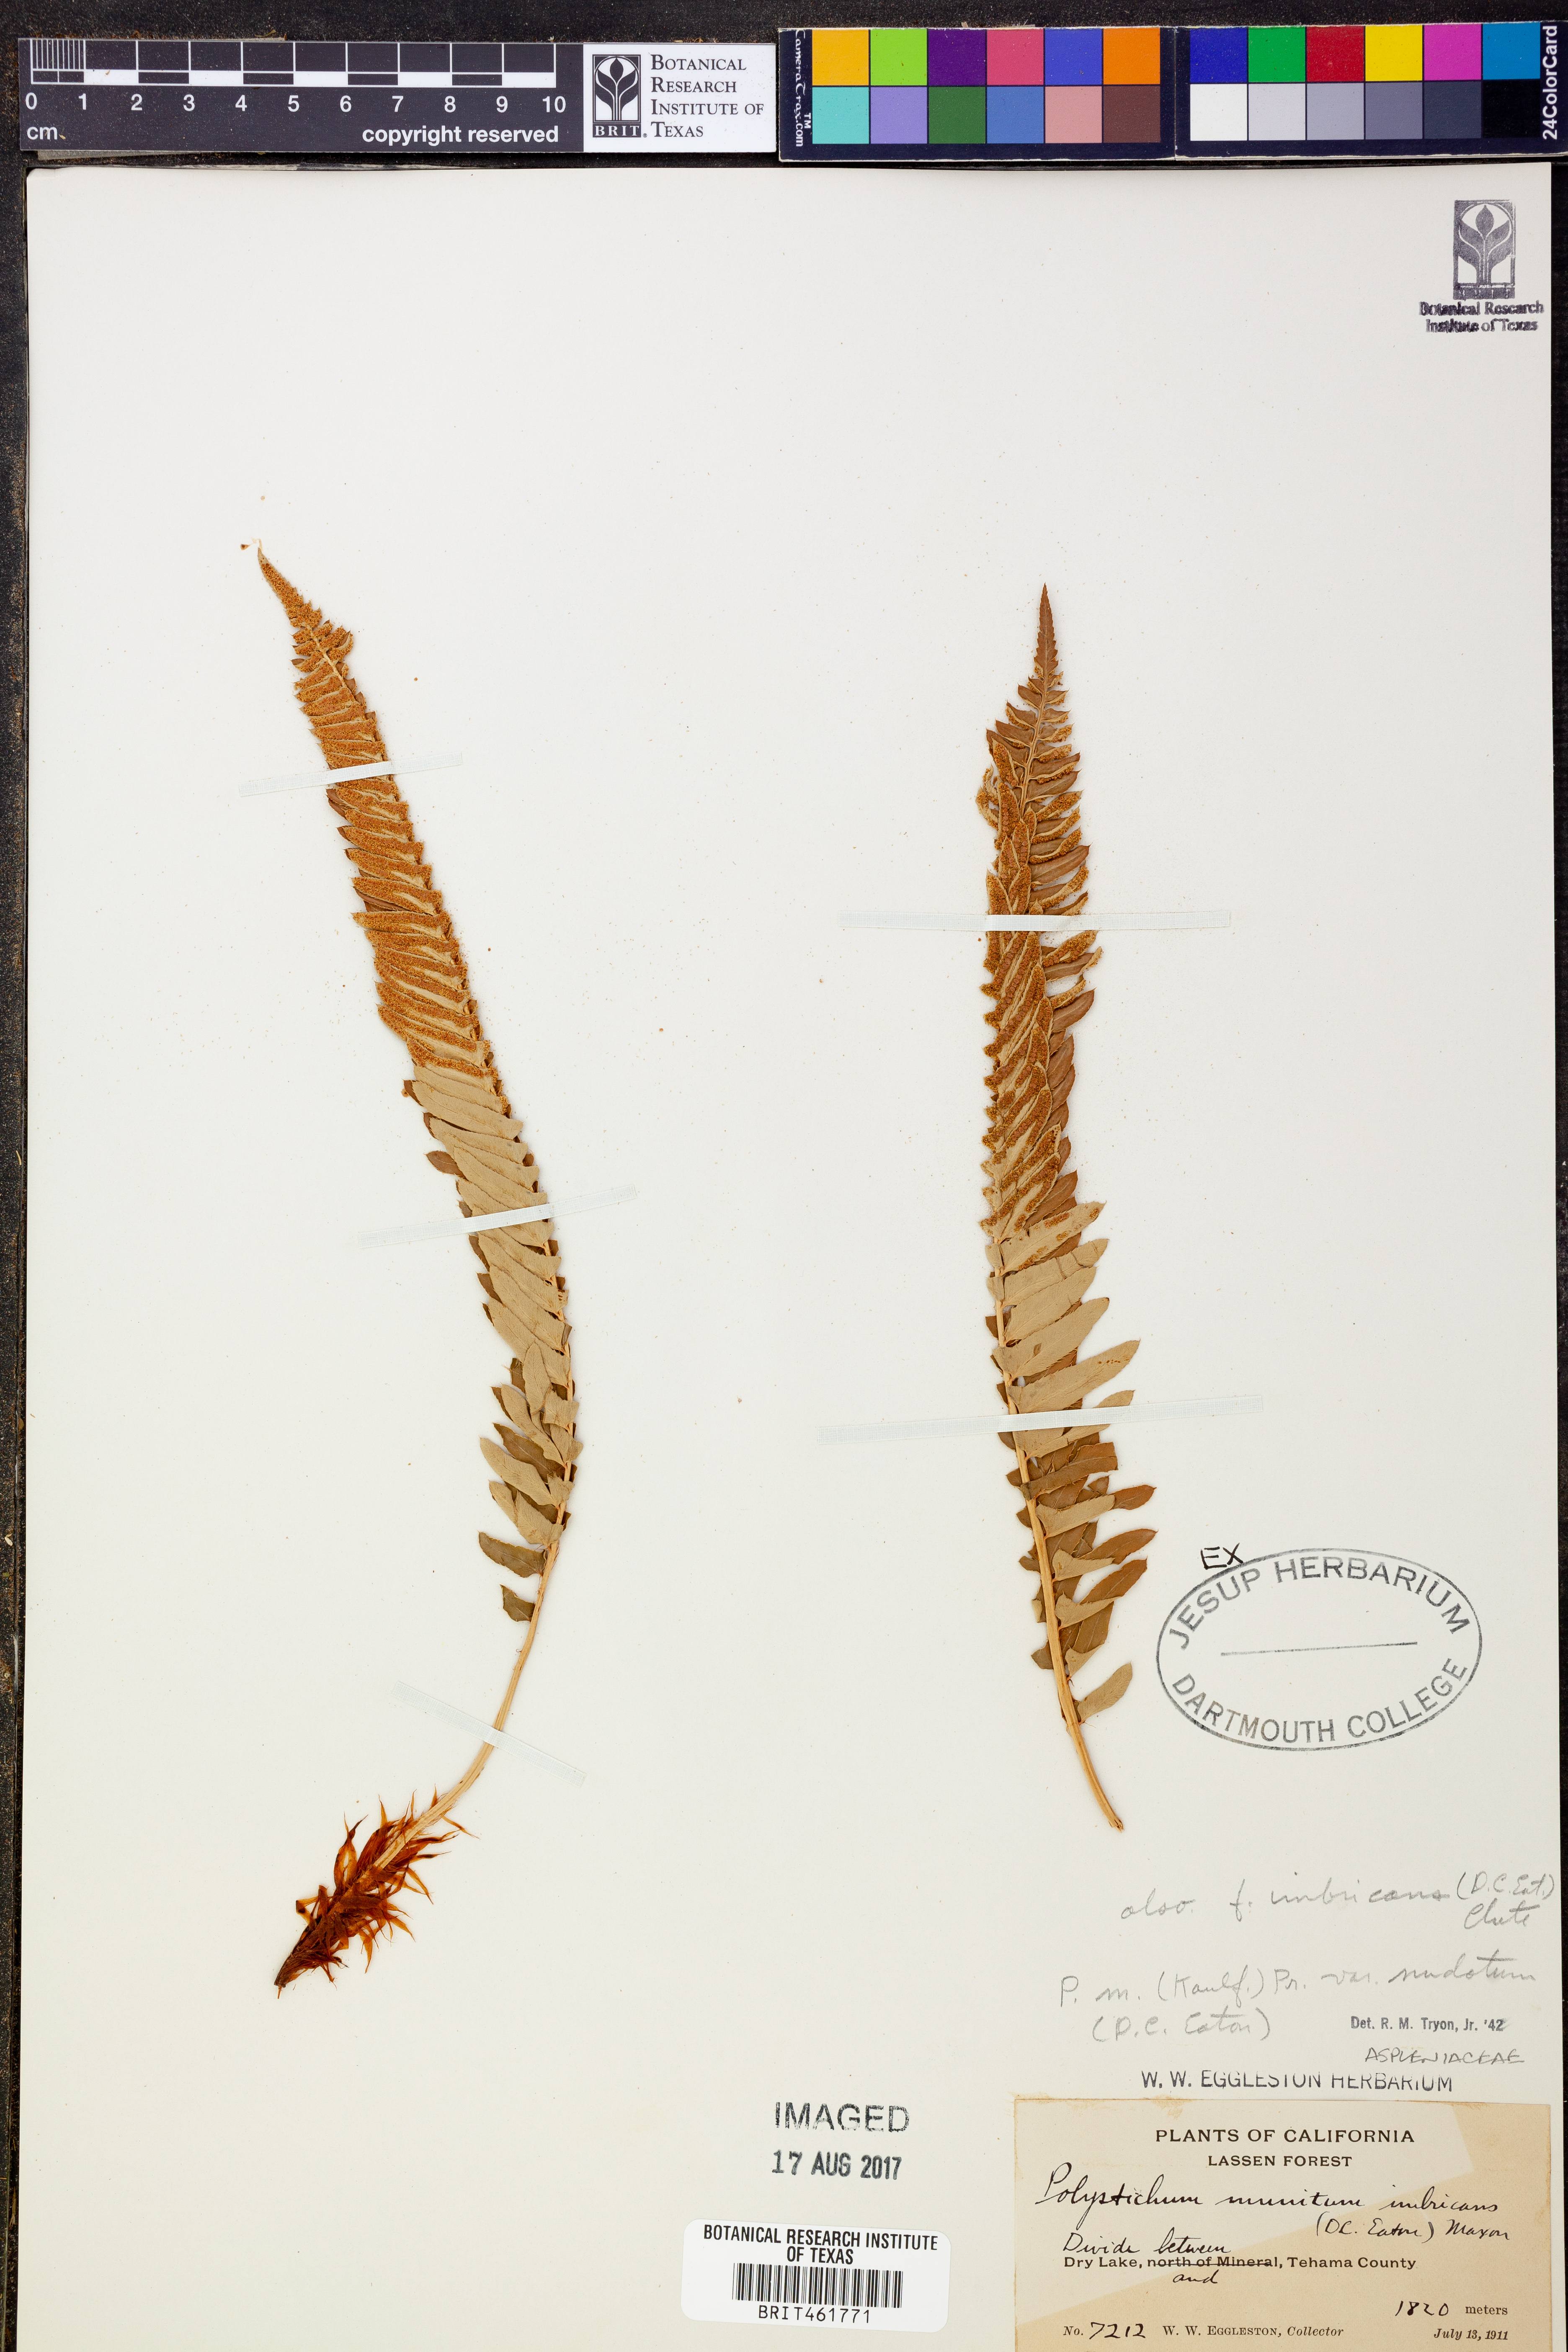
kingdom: Plantae
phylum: Tracheophyta
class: Polypodiopsida
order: Polypodiales
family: Dryopteridaceae
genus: Polystichum
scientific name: Polystichum munitum
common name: Western sword-fern
